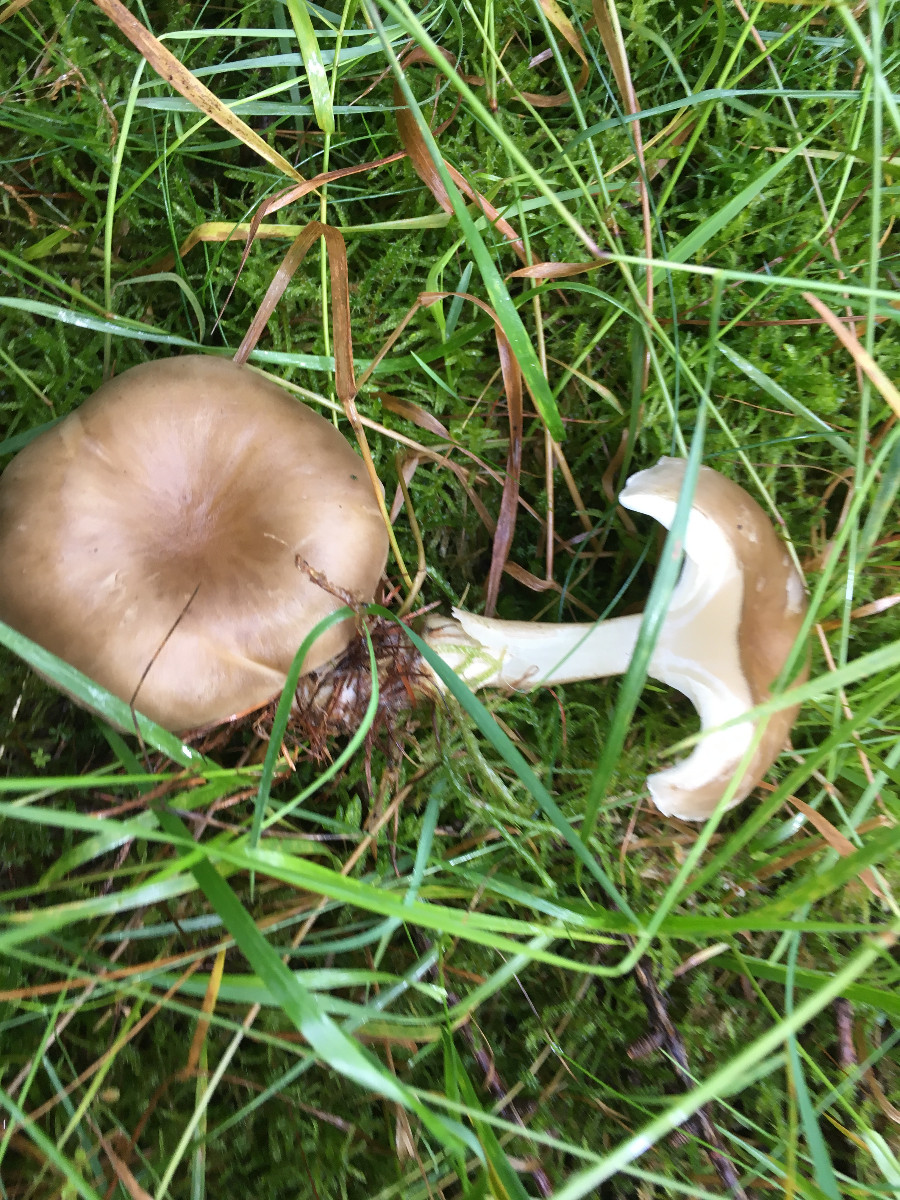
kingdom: Fungi
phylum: Basidiomycota
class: Agaricomycetes
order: Agaricales
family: Tricholomataceae
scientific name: Tricholomataceae
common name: ridderhatfamilien
